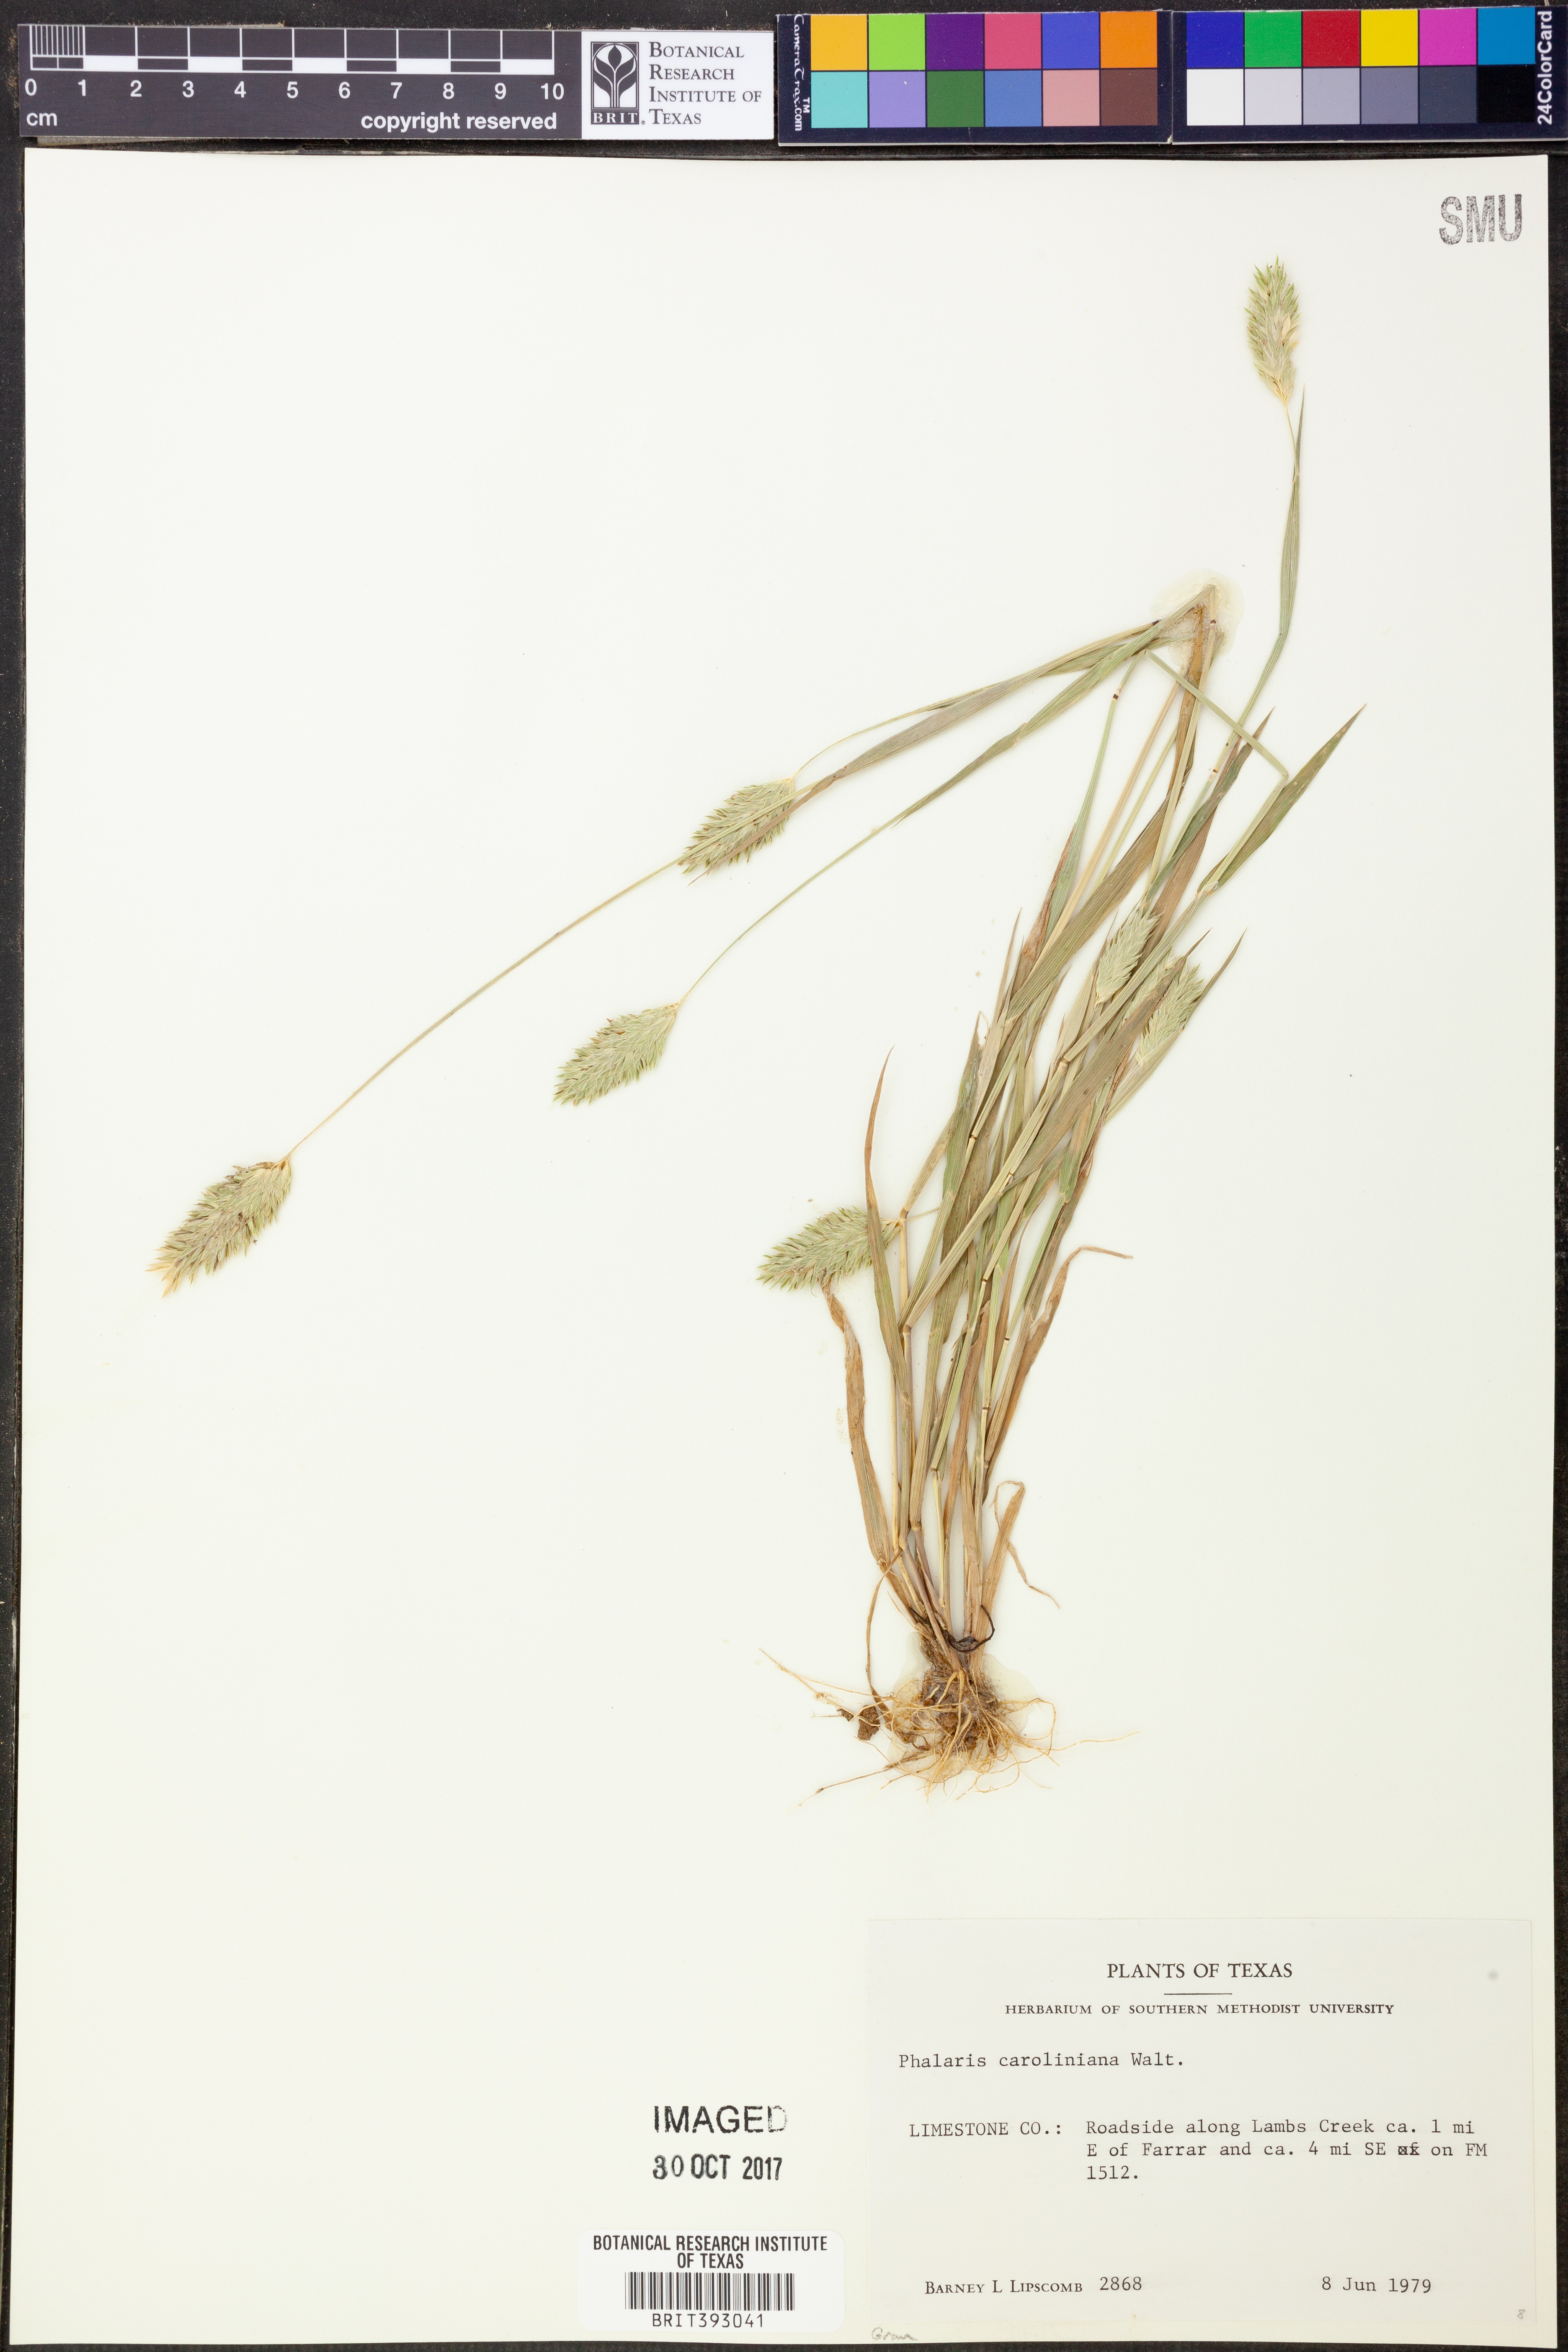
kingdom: Plantae
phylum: Tracheophyta
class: Liliopsida
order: Poales
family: Poaceae
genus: Phalaris
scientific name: Phalaris caroliniana
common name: May grass
